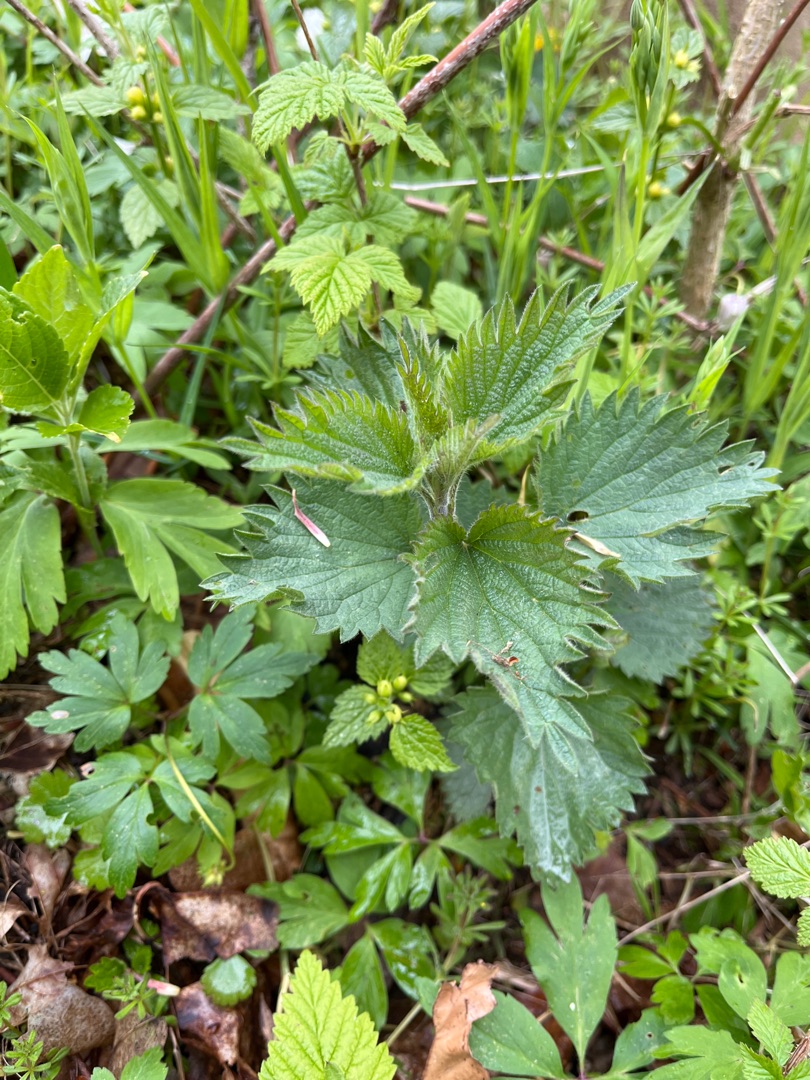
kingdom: Plantae
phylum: Tracheophyta
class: Magnoliopsida
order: Rosales
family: Urticaceae
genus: Urtica
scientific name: Urtica dioica
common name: Stor nælde
